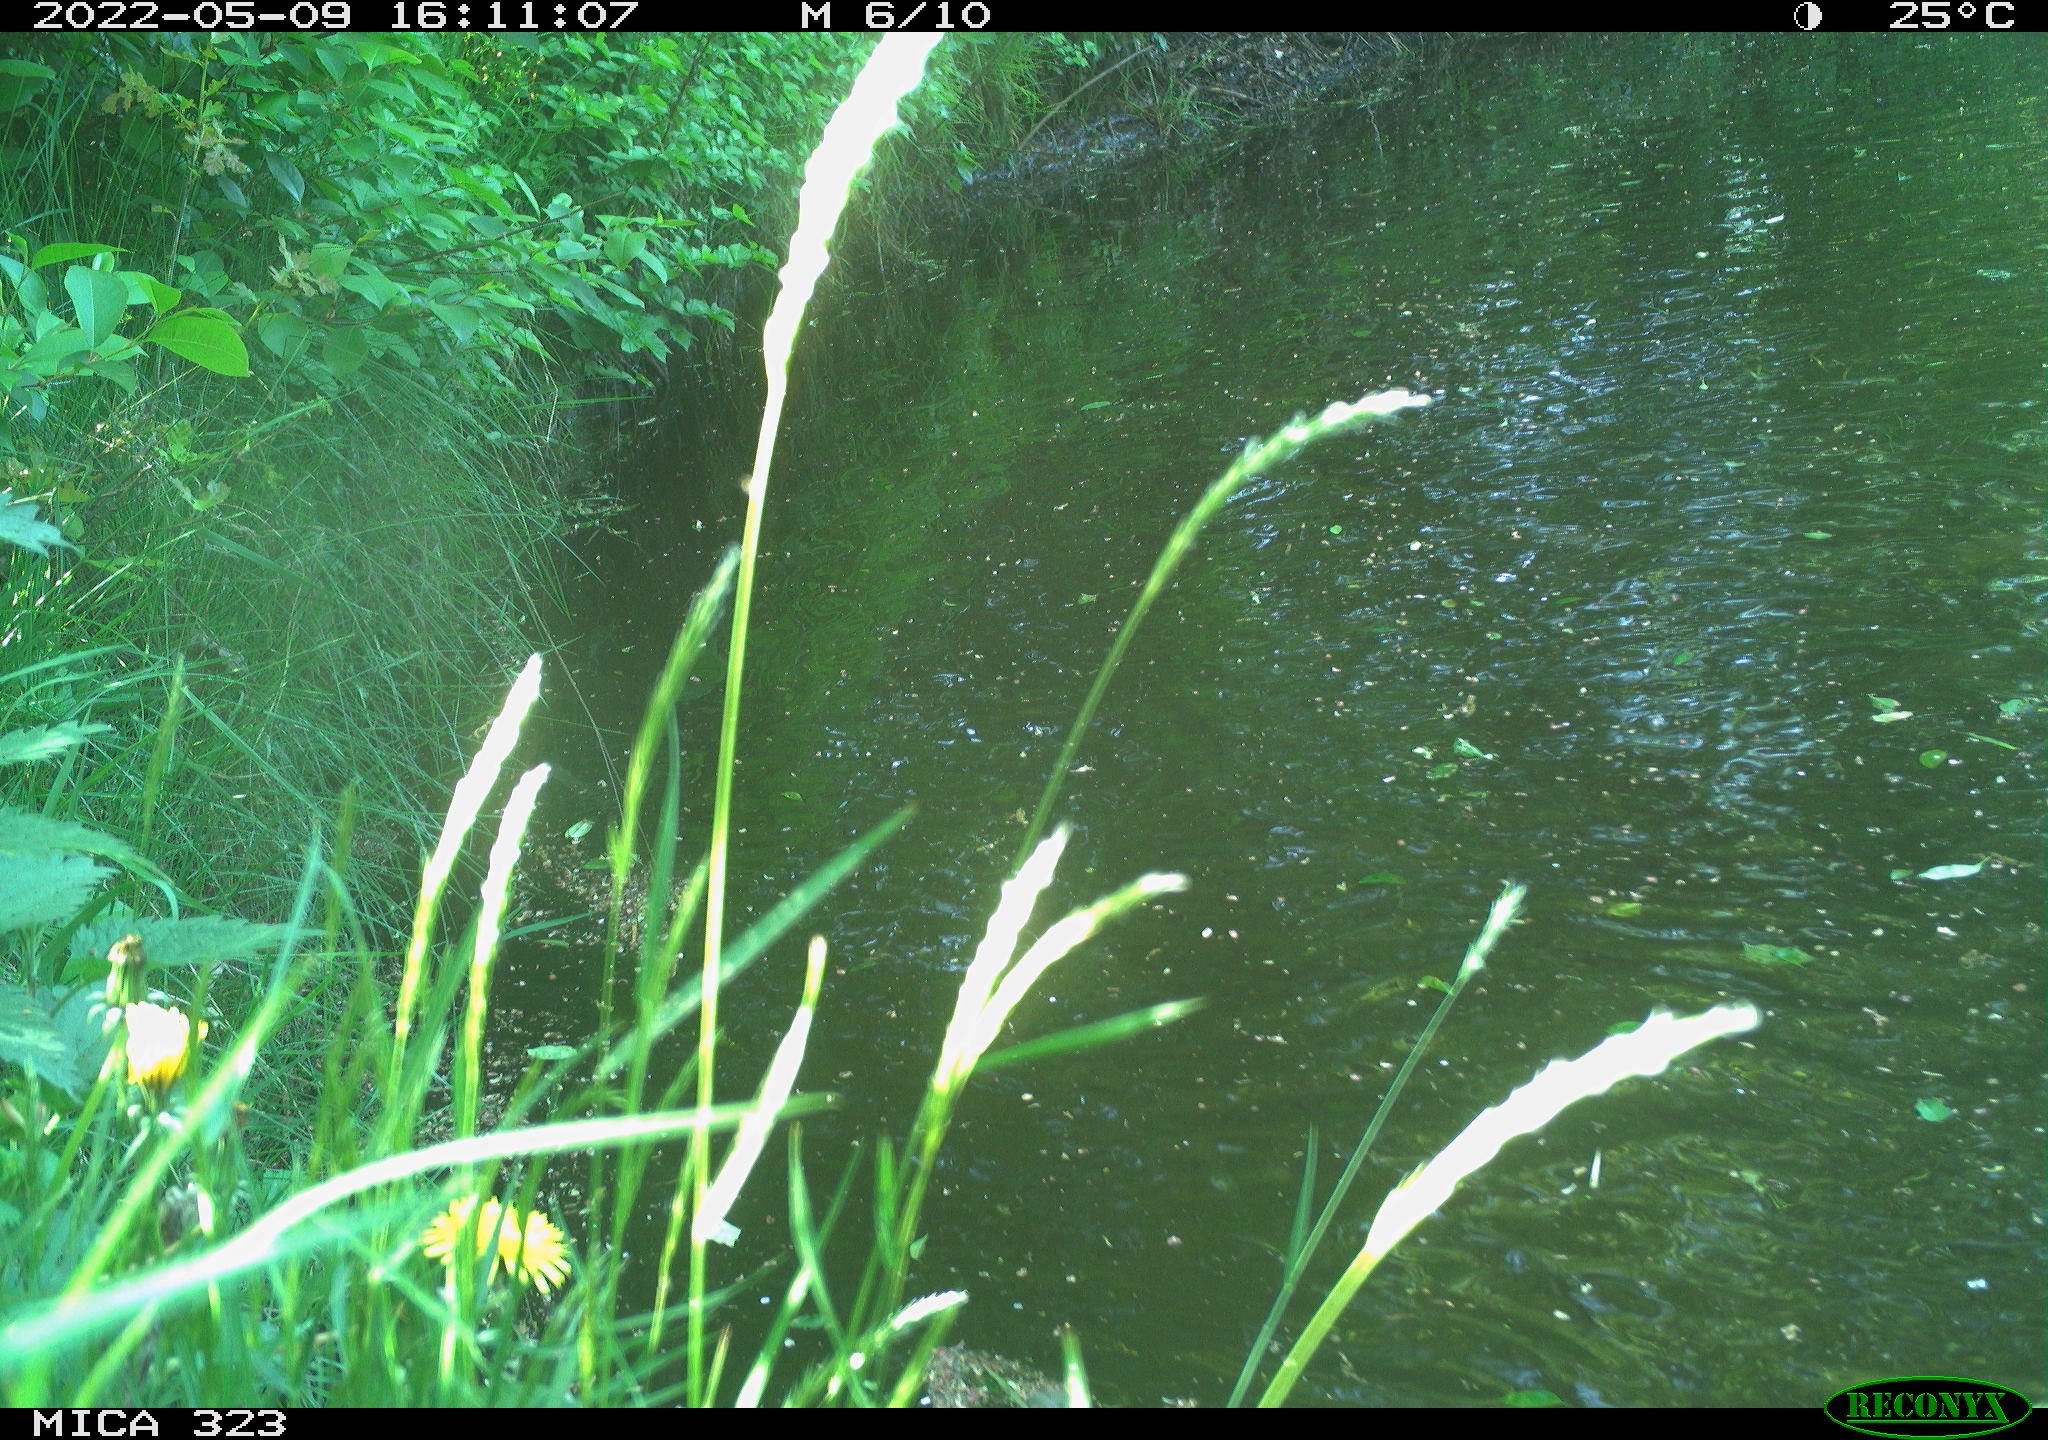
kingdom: Animalia
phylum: Chordata
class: Aves
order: Anseriformes
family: Anatidae
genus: Anas
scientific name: Anas platyrhynchos
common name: Mallard
